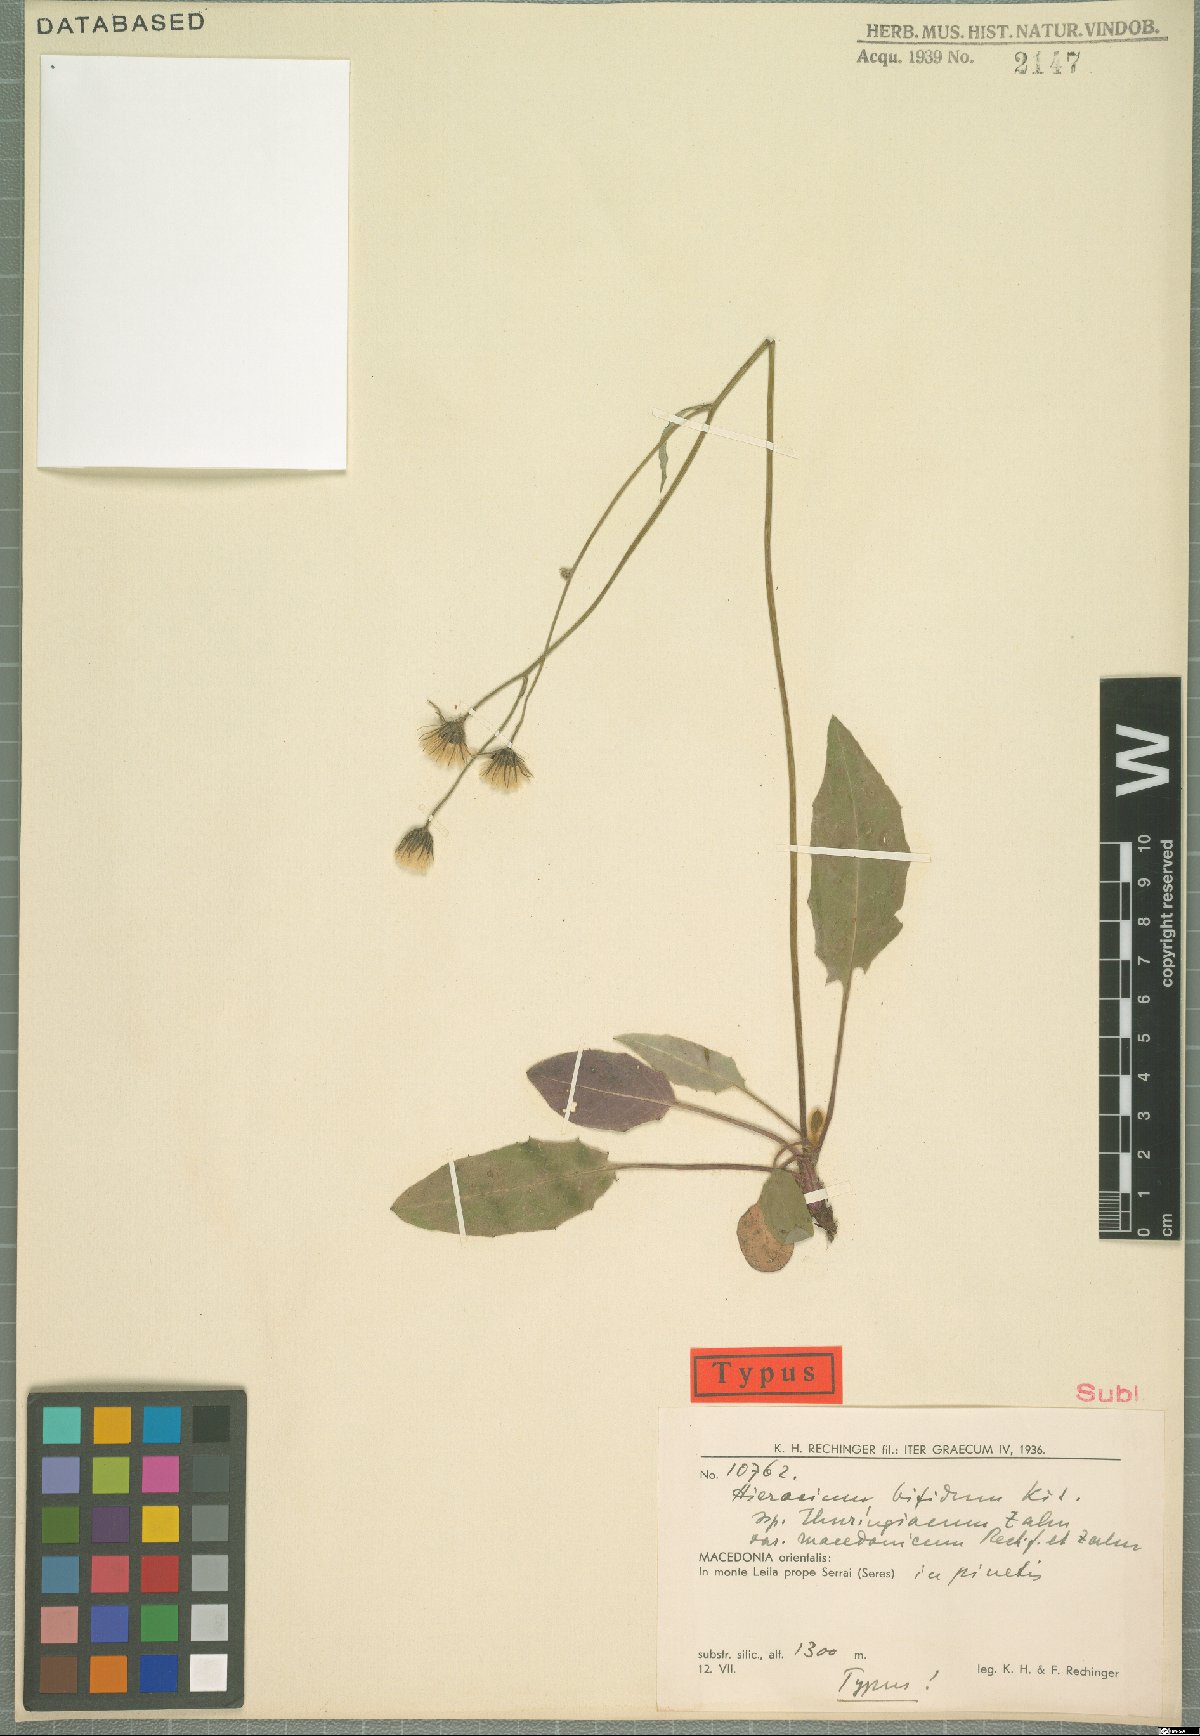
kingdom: Plantae
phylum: Tracheophyta
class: Magnoliopsida
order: Asterales
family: Asteraceae
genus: Hieracium
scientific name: Hieracium bifidum
